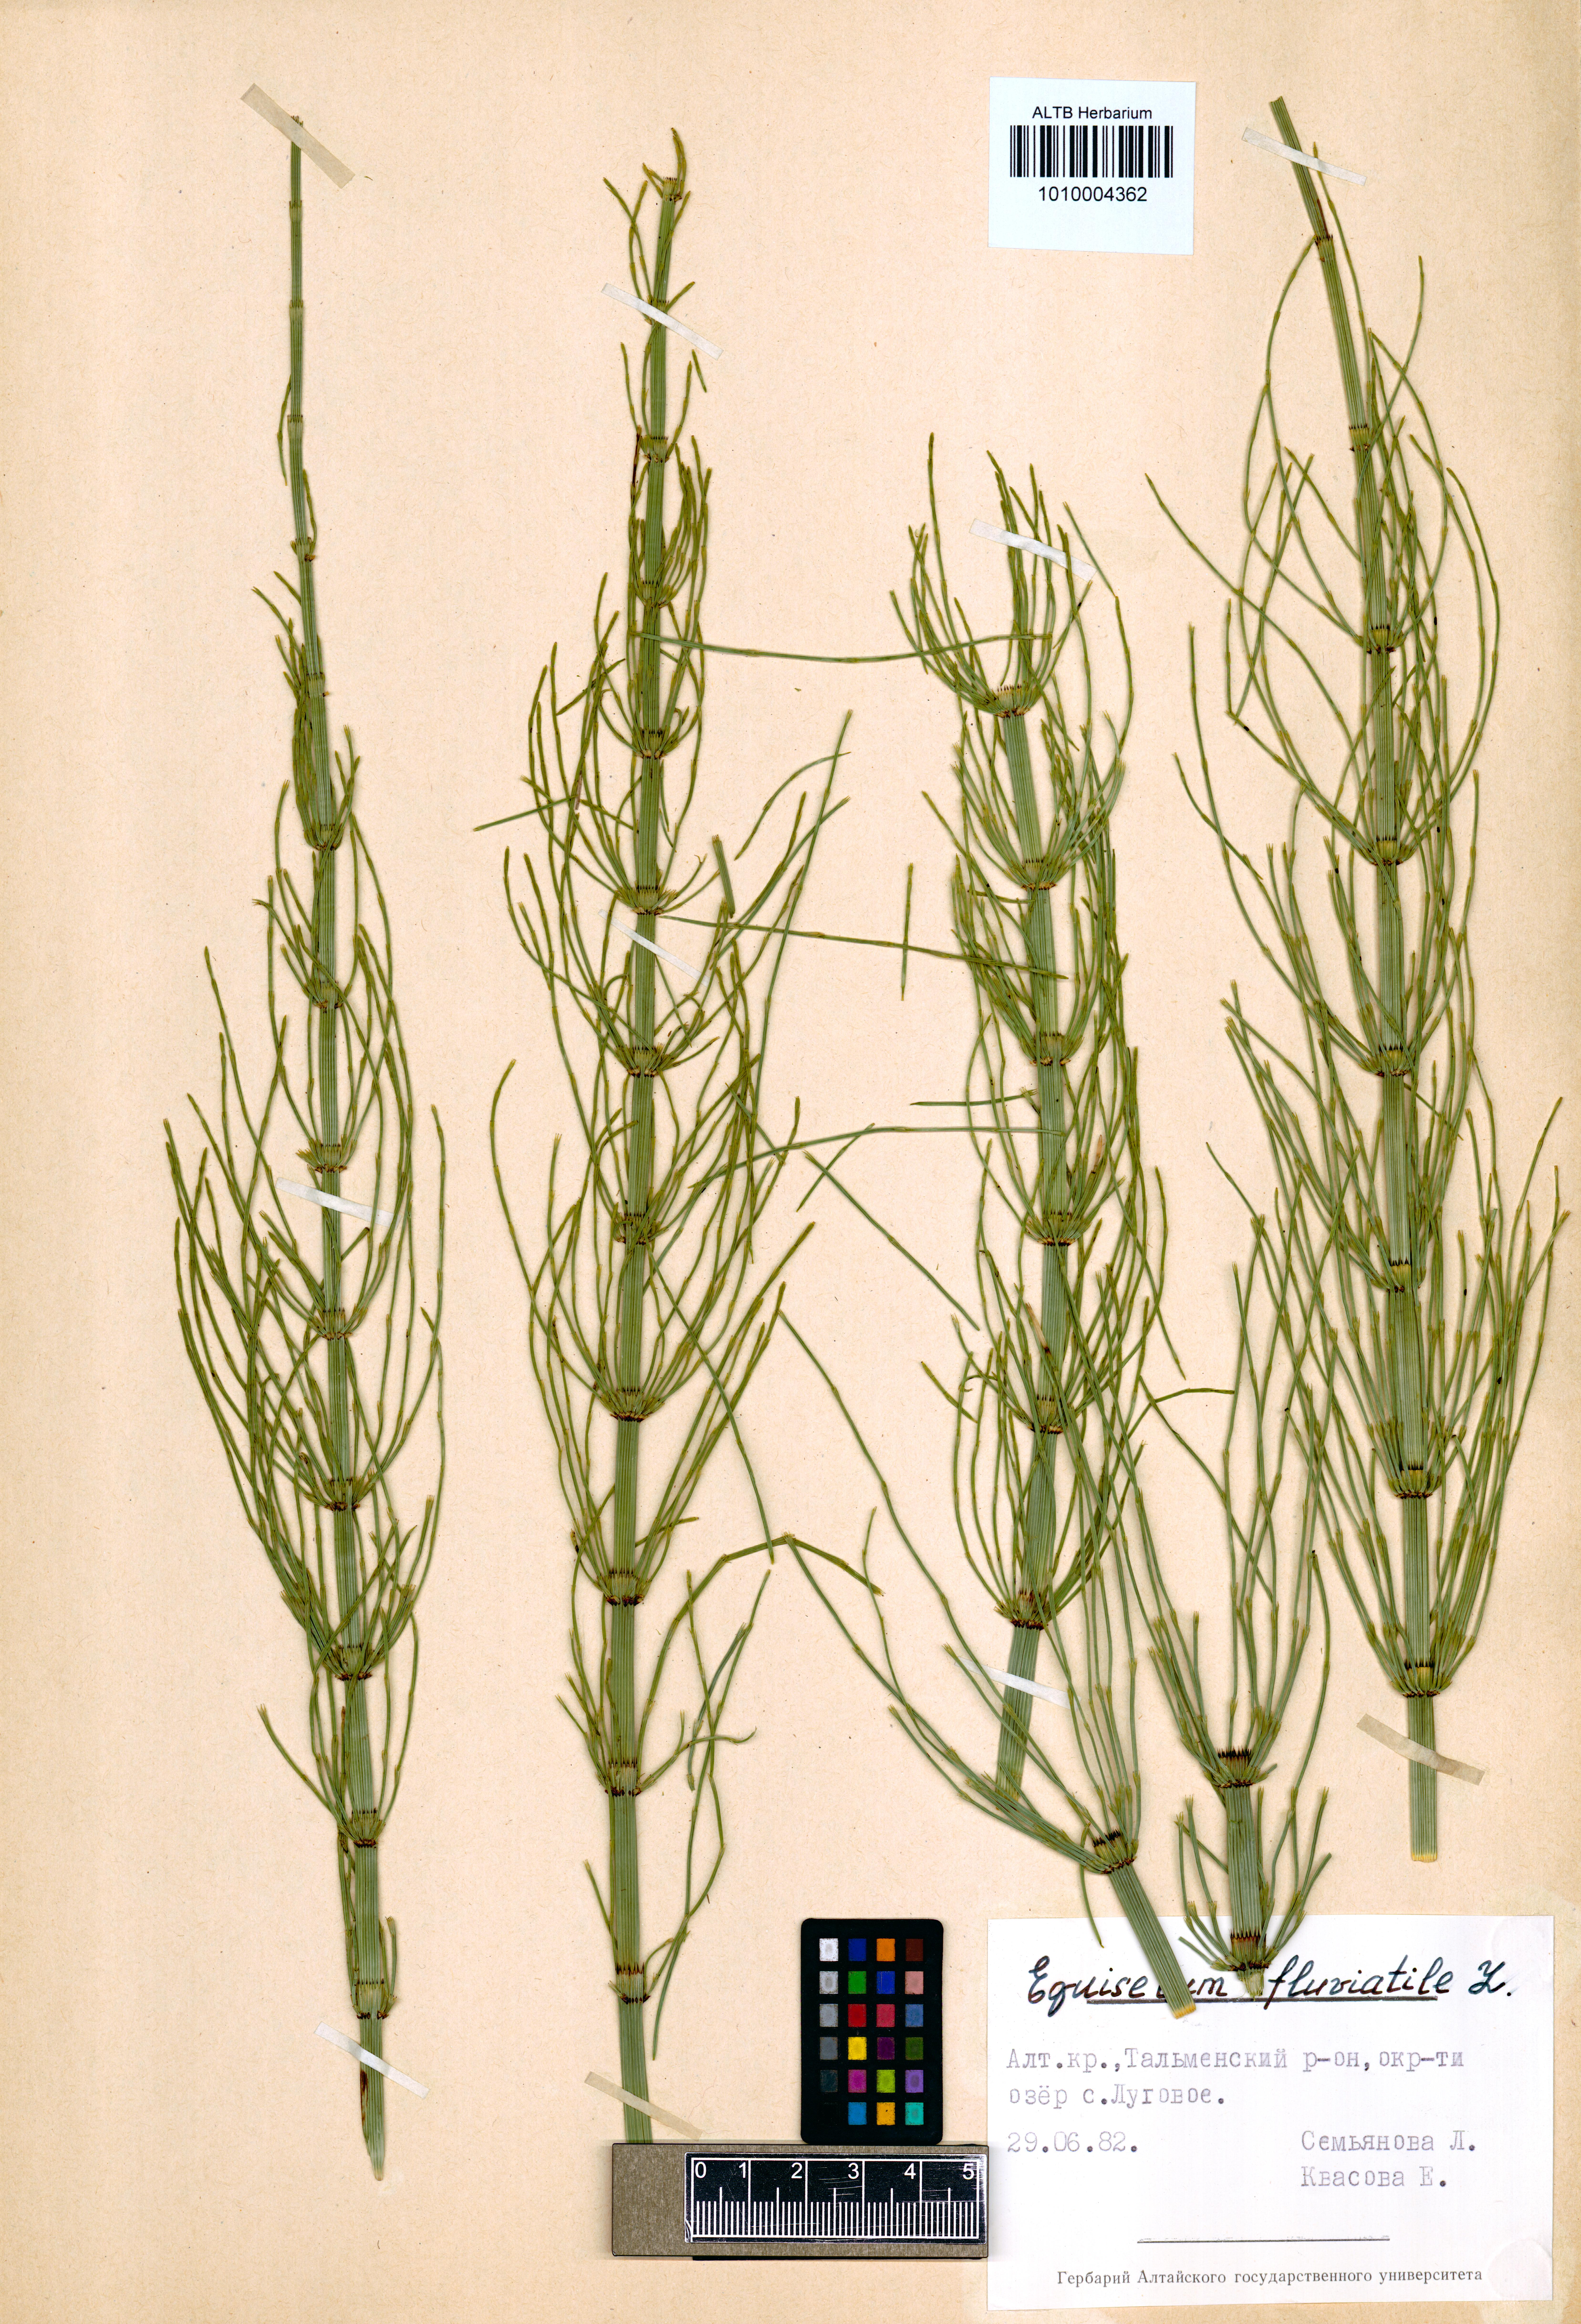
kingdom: Plantae
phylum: Tracheophyta
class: Polypodiopsida
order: Equisetales
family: Equisetaceae
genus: Equisetum
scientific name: Equisetum fluviatile
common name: Water horsetail
